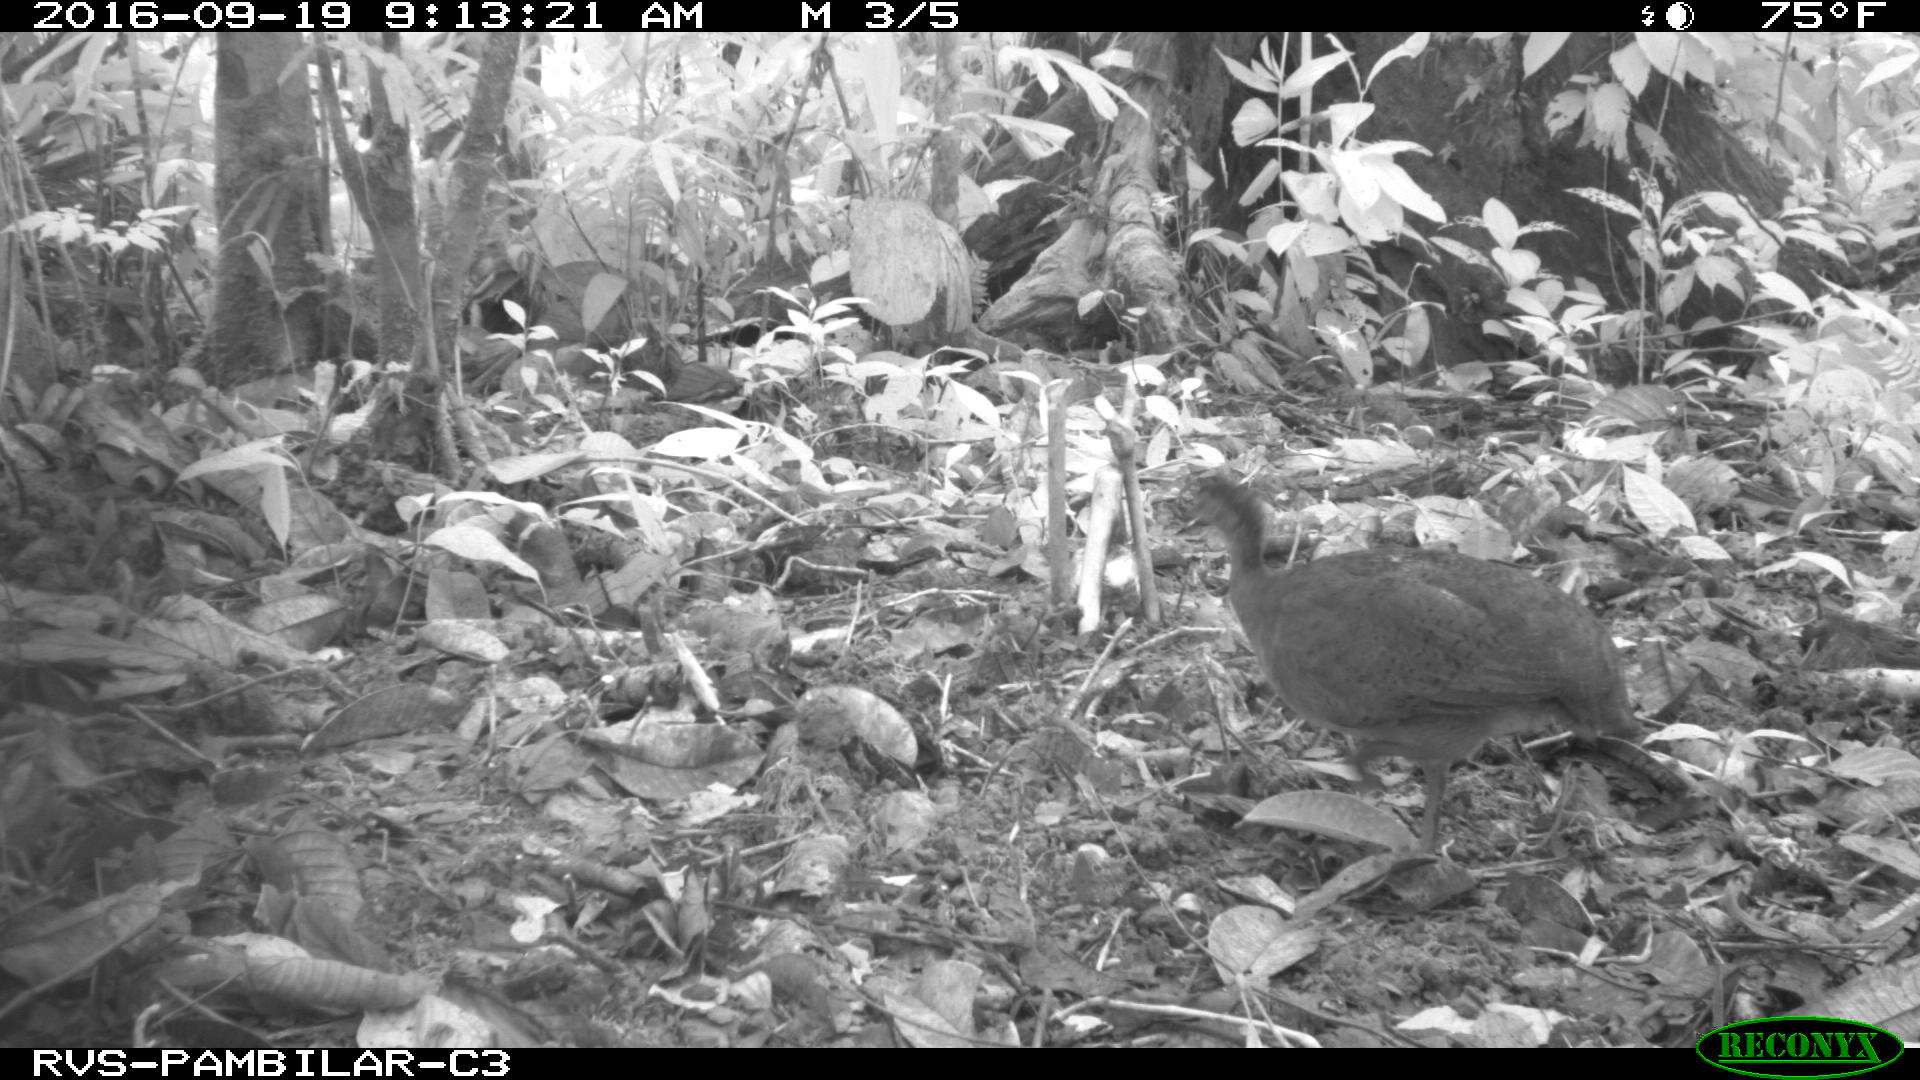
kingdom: Animalia
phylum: Chordata
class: Aves
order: Tinamiformes
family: Tinamidae
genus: Tinamus
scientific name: Tinamus major
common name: Great tinamou
